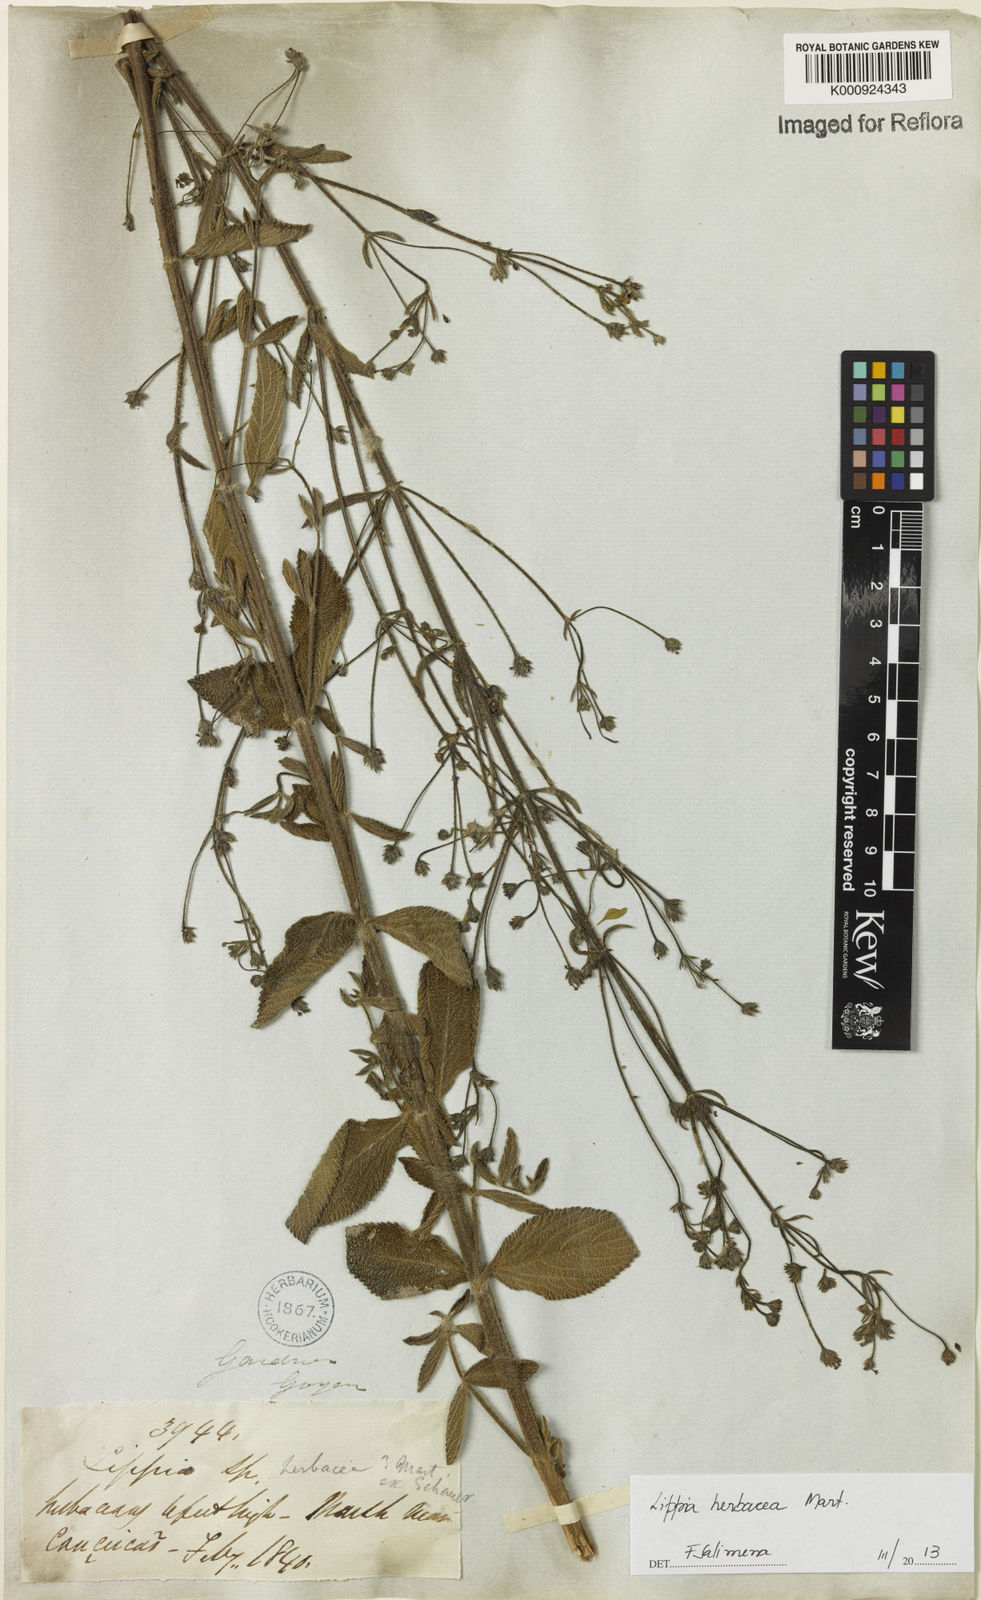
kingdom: Plantae
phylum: Tracheophyta
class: Magnoliopsida
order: Lamiales
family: Verbenaceae
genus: Lippia
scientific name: Lippia
